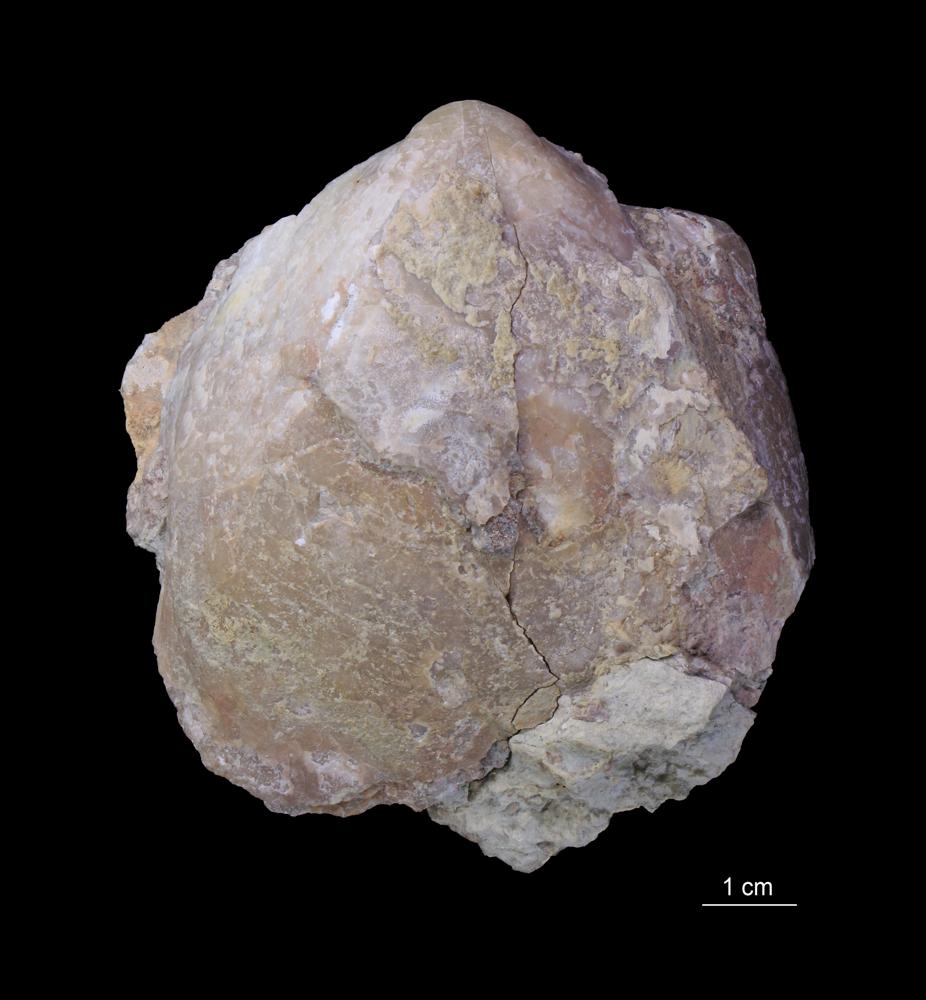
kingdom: Animalia
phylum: Brachiopoda
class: Rhynchonellata
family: Pentameridae
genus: Pentamerus
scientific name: Pentamerus oblongus
